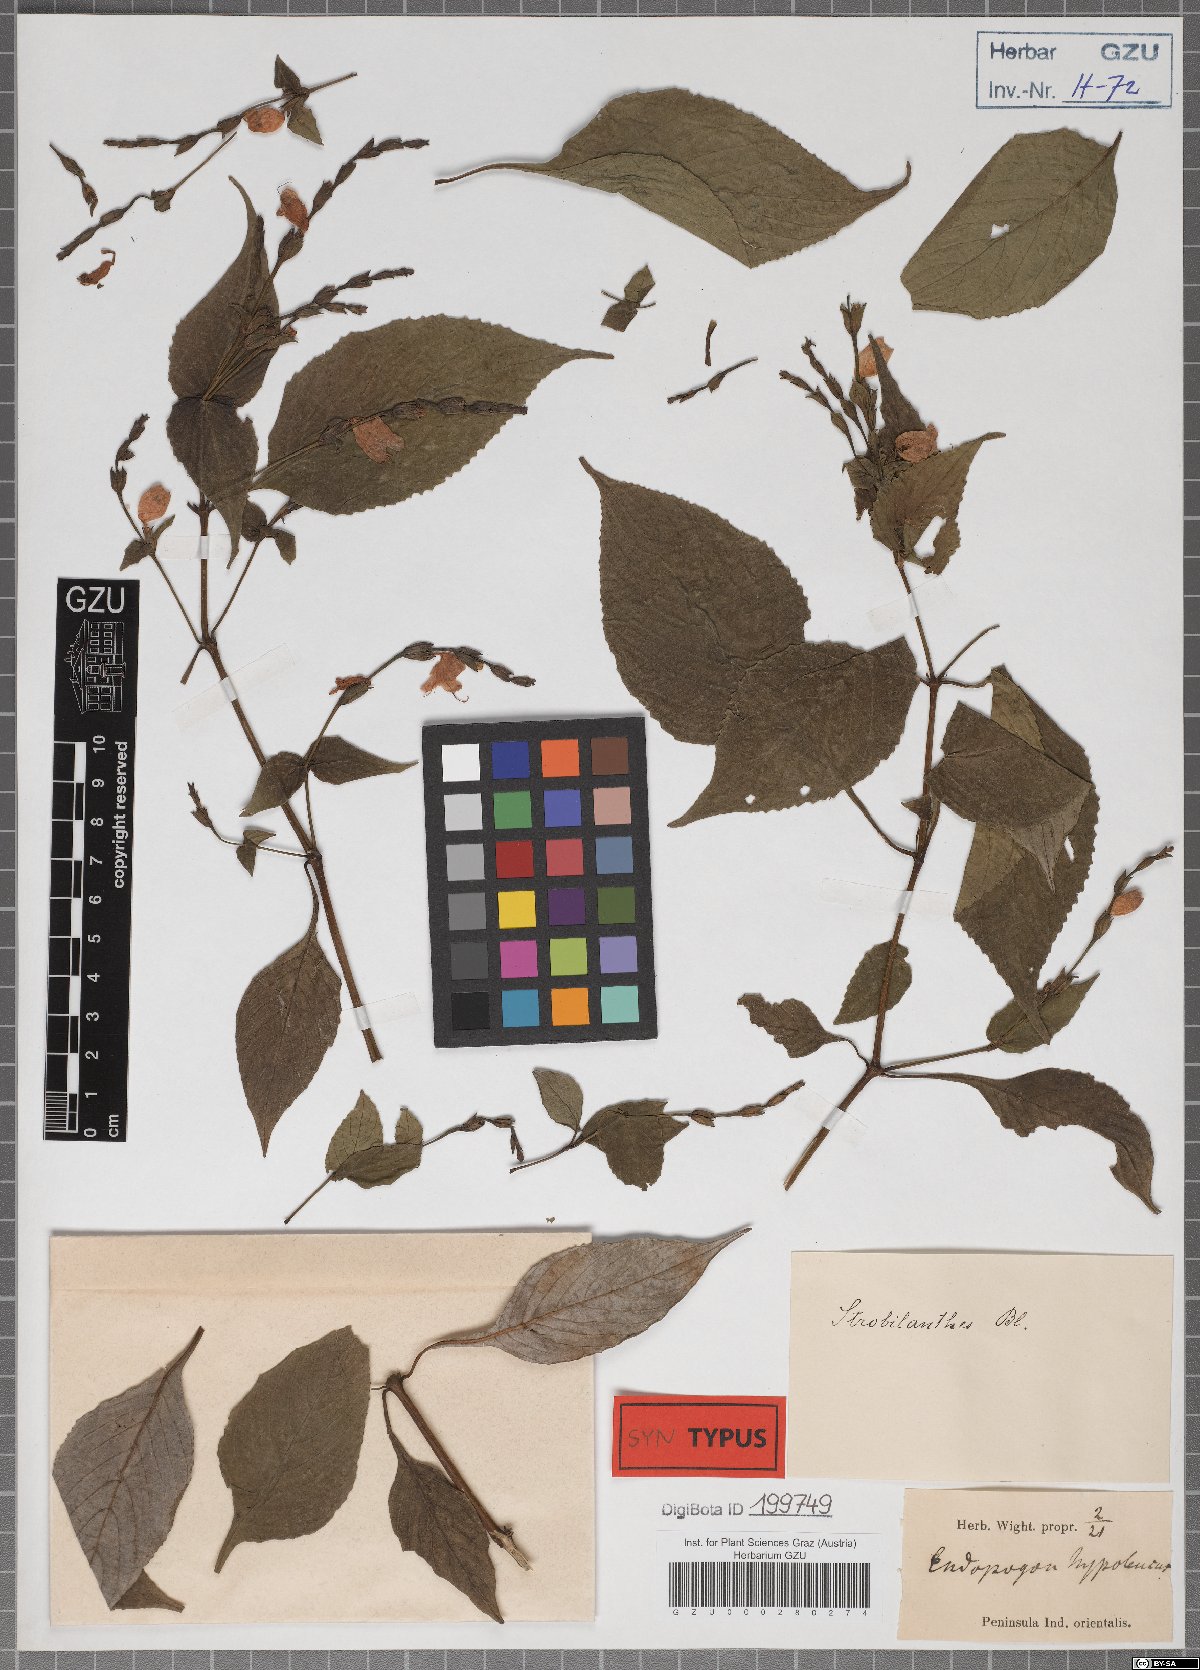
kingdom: Plantae
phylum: Tracheophyta
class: Magnoliopsida
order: Lamiales
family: Acanthaceae
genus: Strobilanthes
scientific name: Strobilanthes consanguinea
